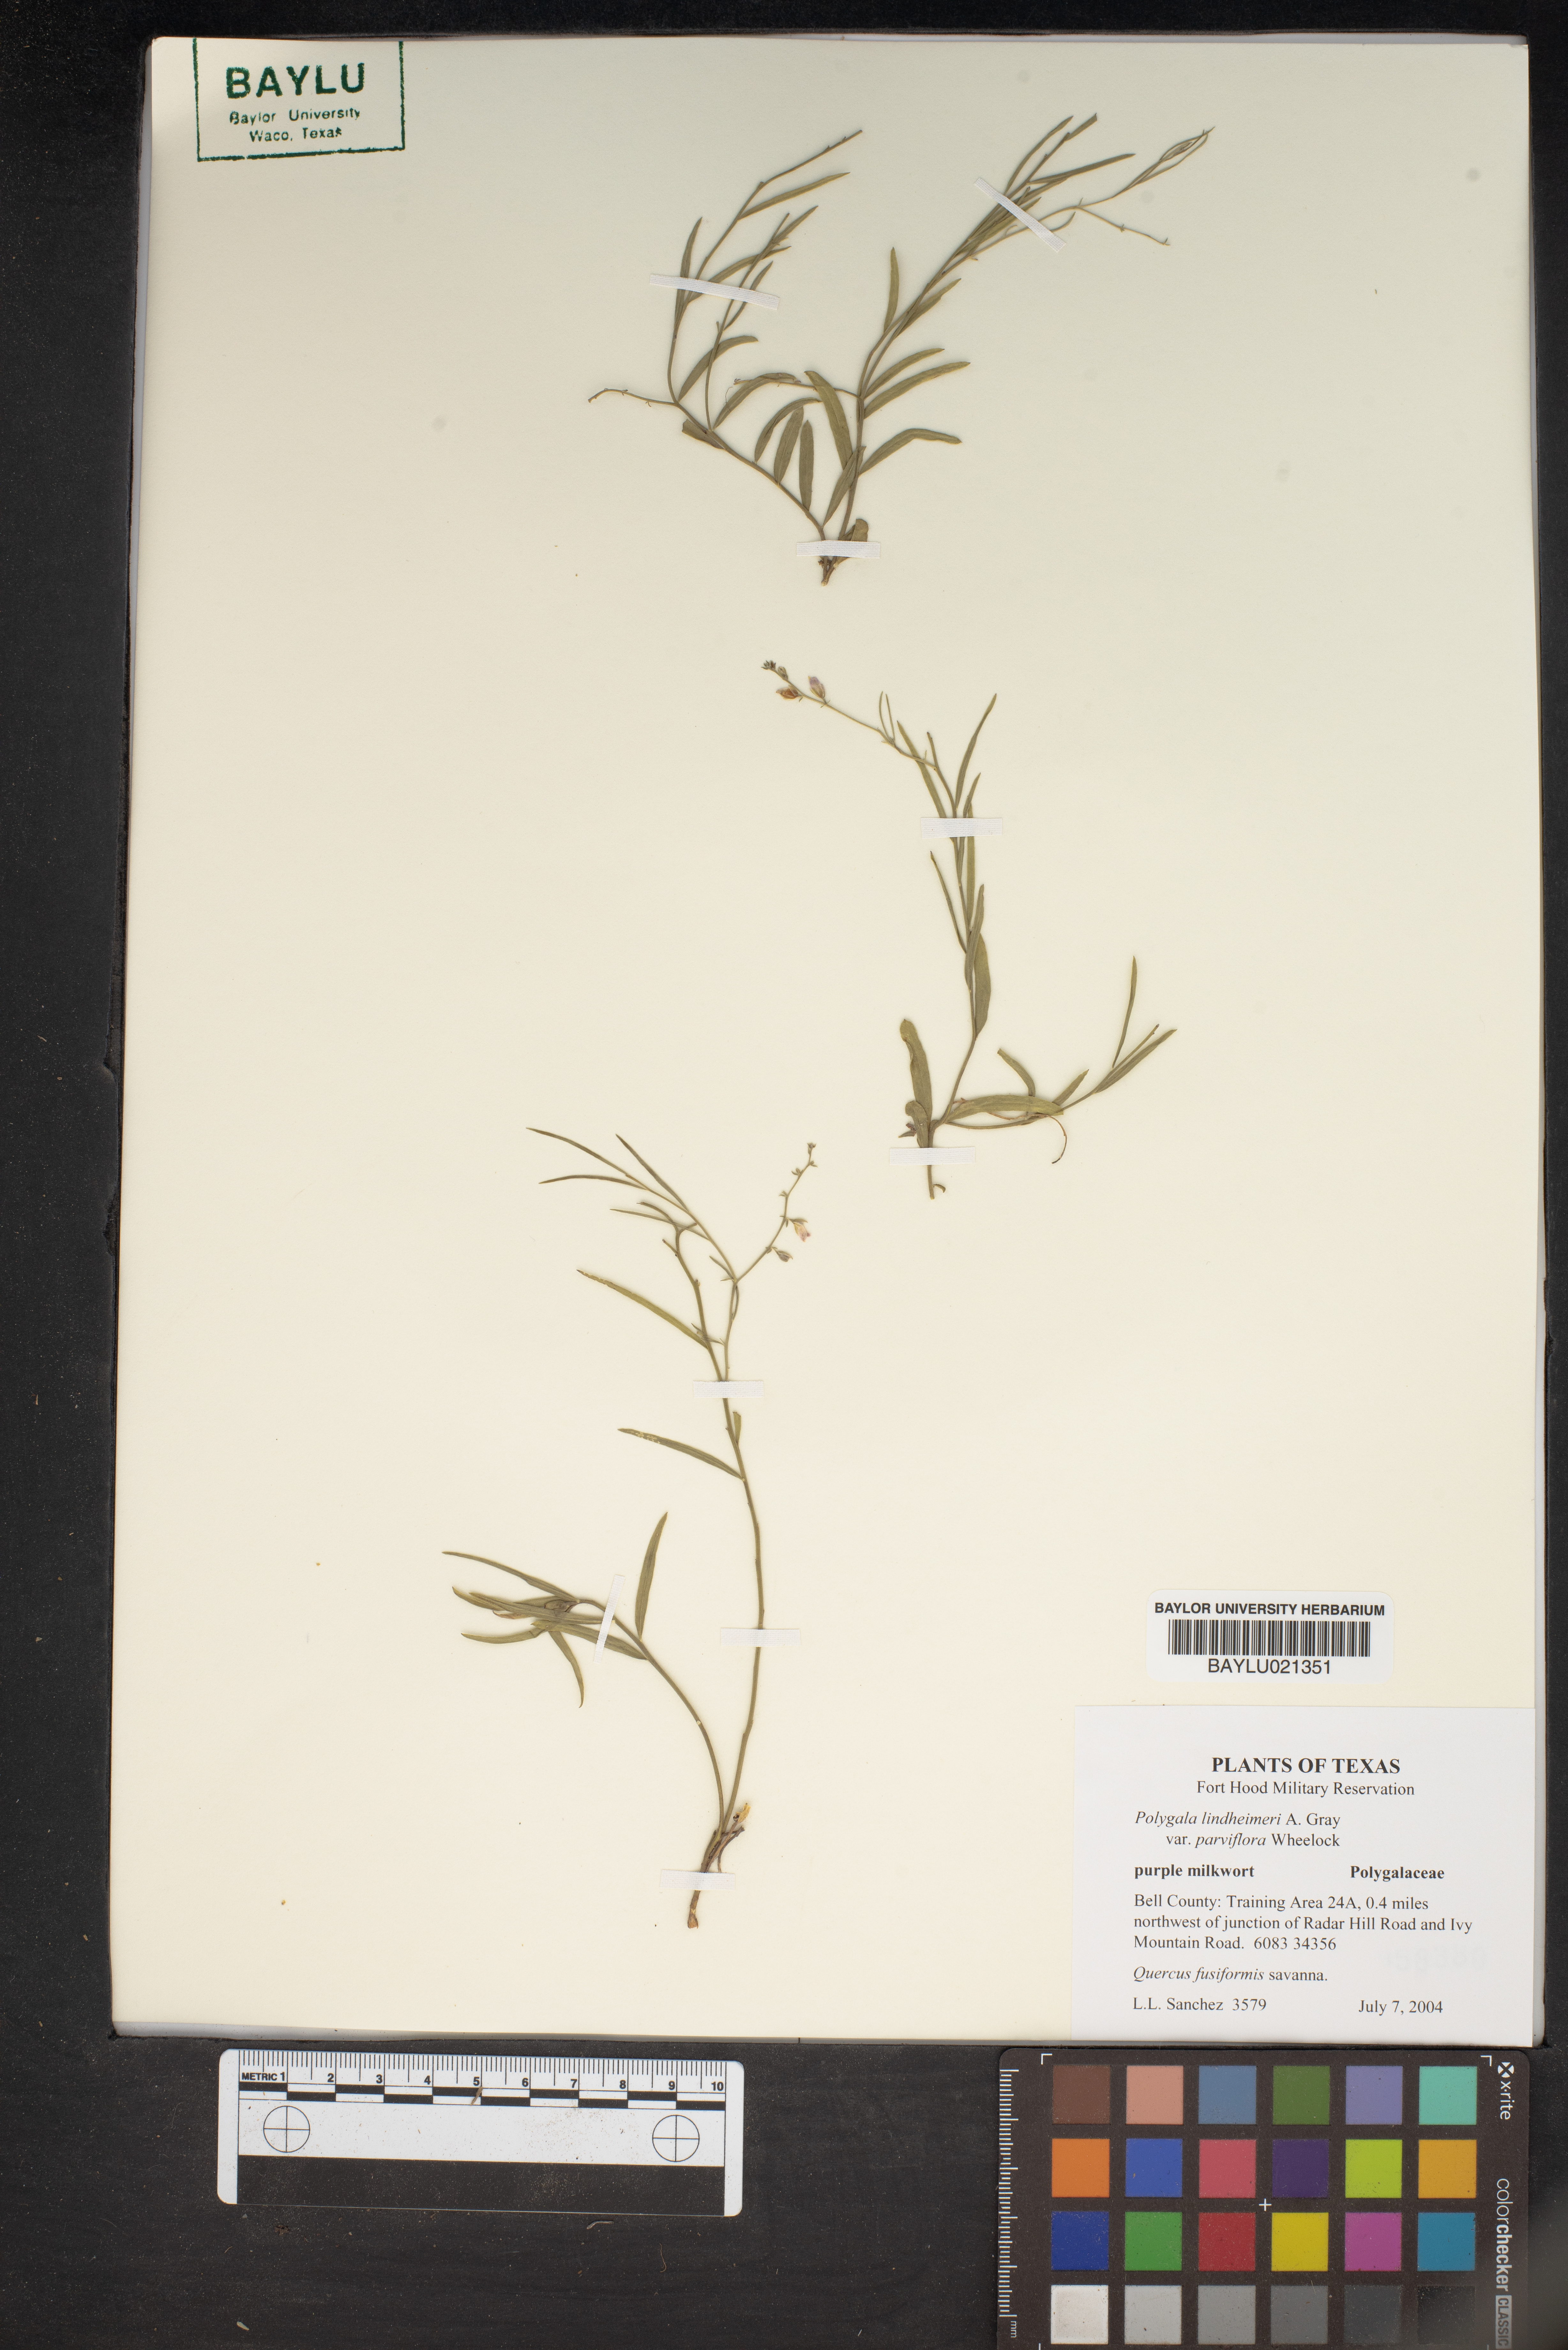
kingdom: Plantae
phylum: Tracheophyta
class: Magnoliopsida
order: Fabales
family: Polygalaceae
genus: Rhinotropis
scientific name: Rhinotropis lindheimeri
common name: Shrubby milkwort
